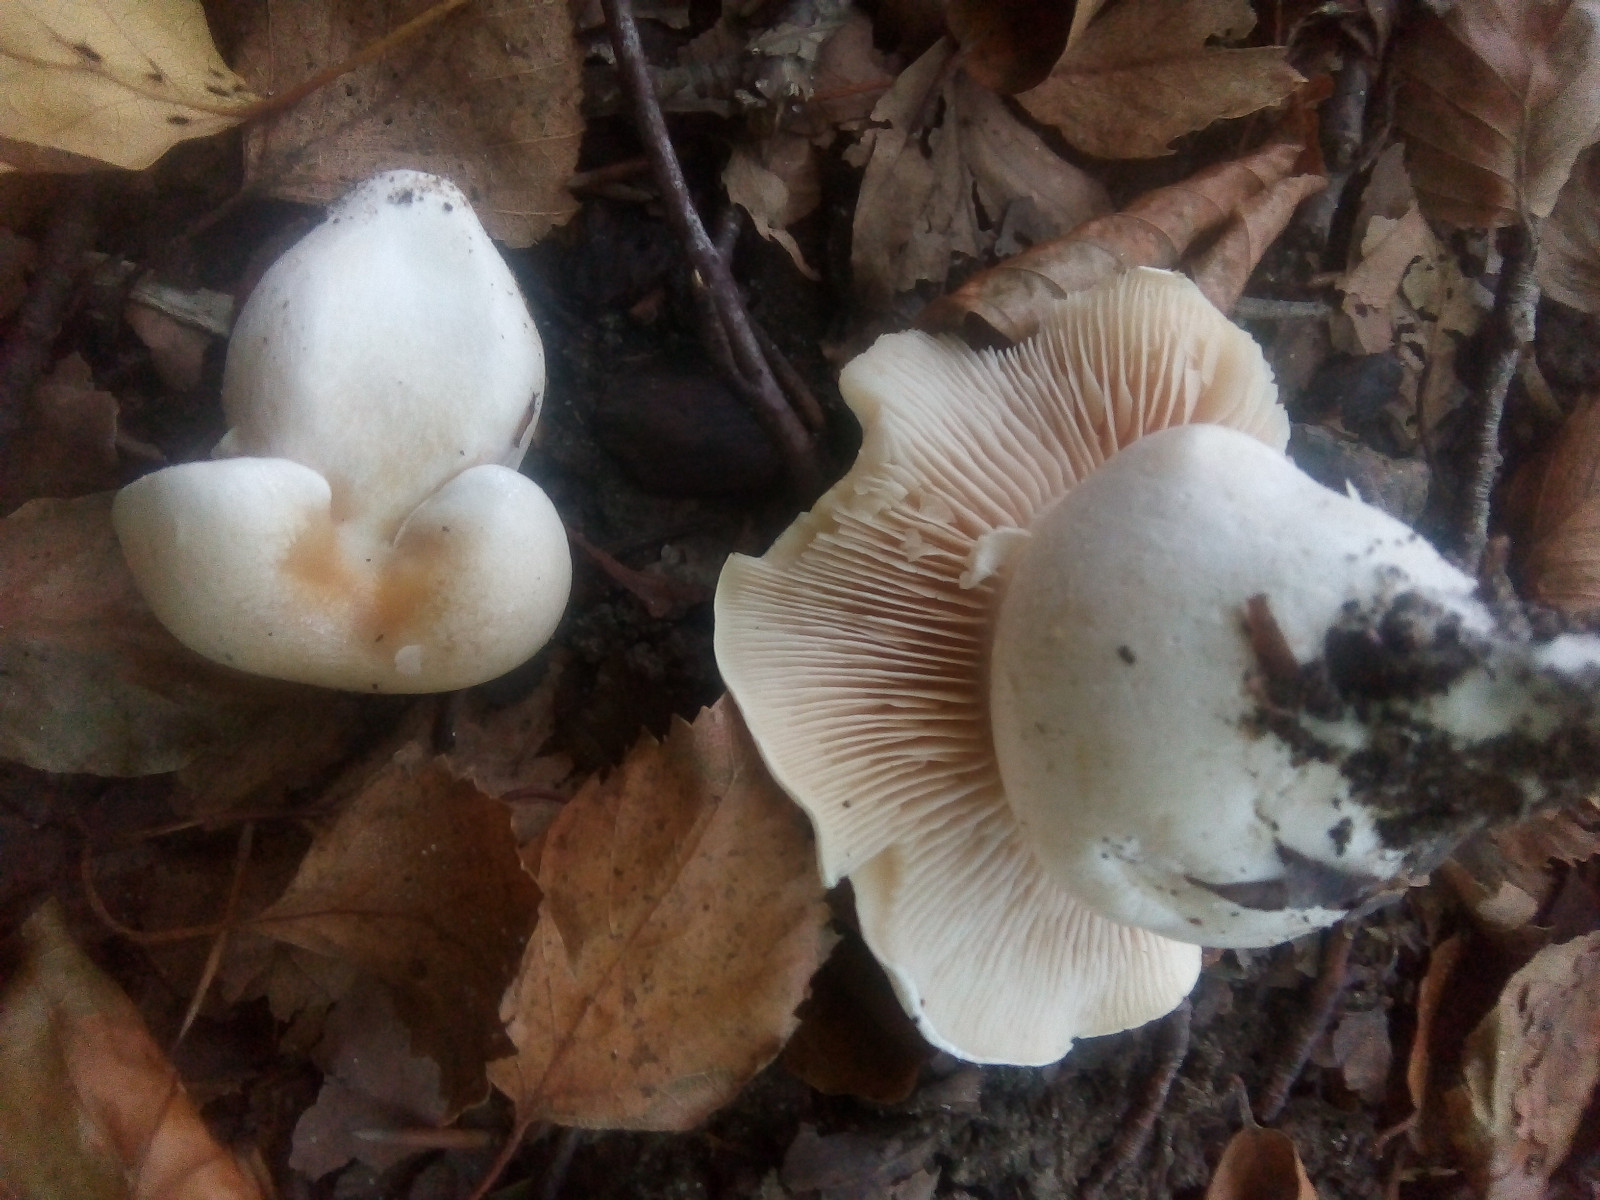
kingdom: Fungi
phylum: Basidiomycota
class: Agaricomycetes
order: Agaricales
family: Cortinariaceae
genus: Thaxterogaster
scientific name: Thaxterogaster barbatus
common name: elfenbens-slørhat
